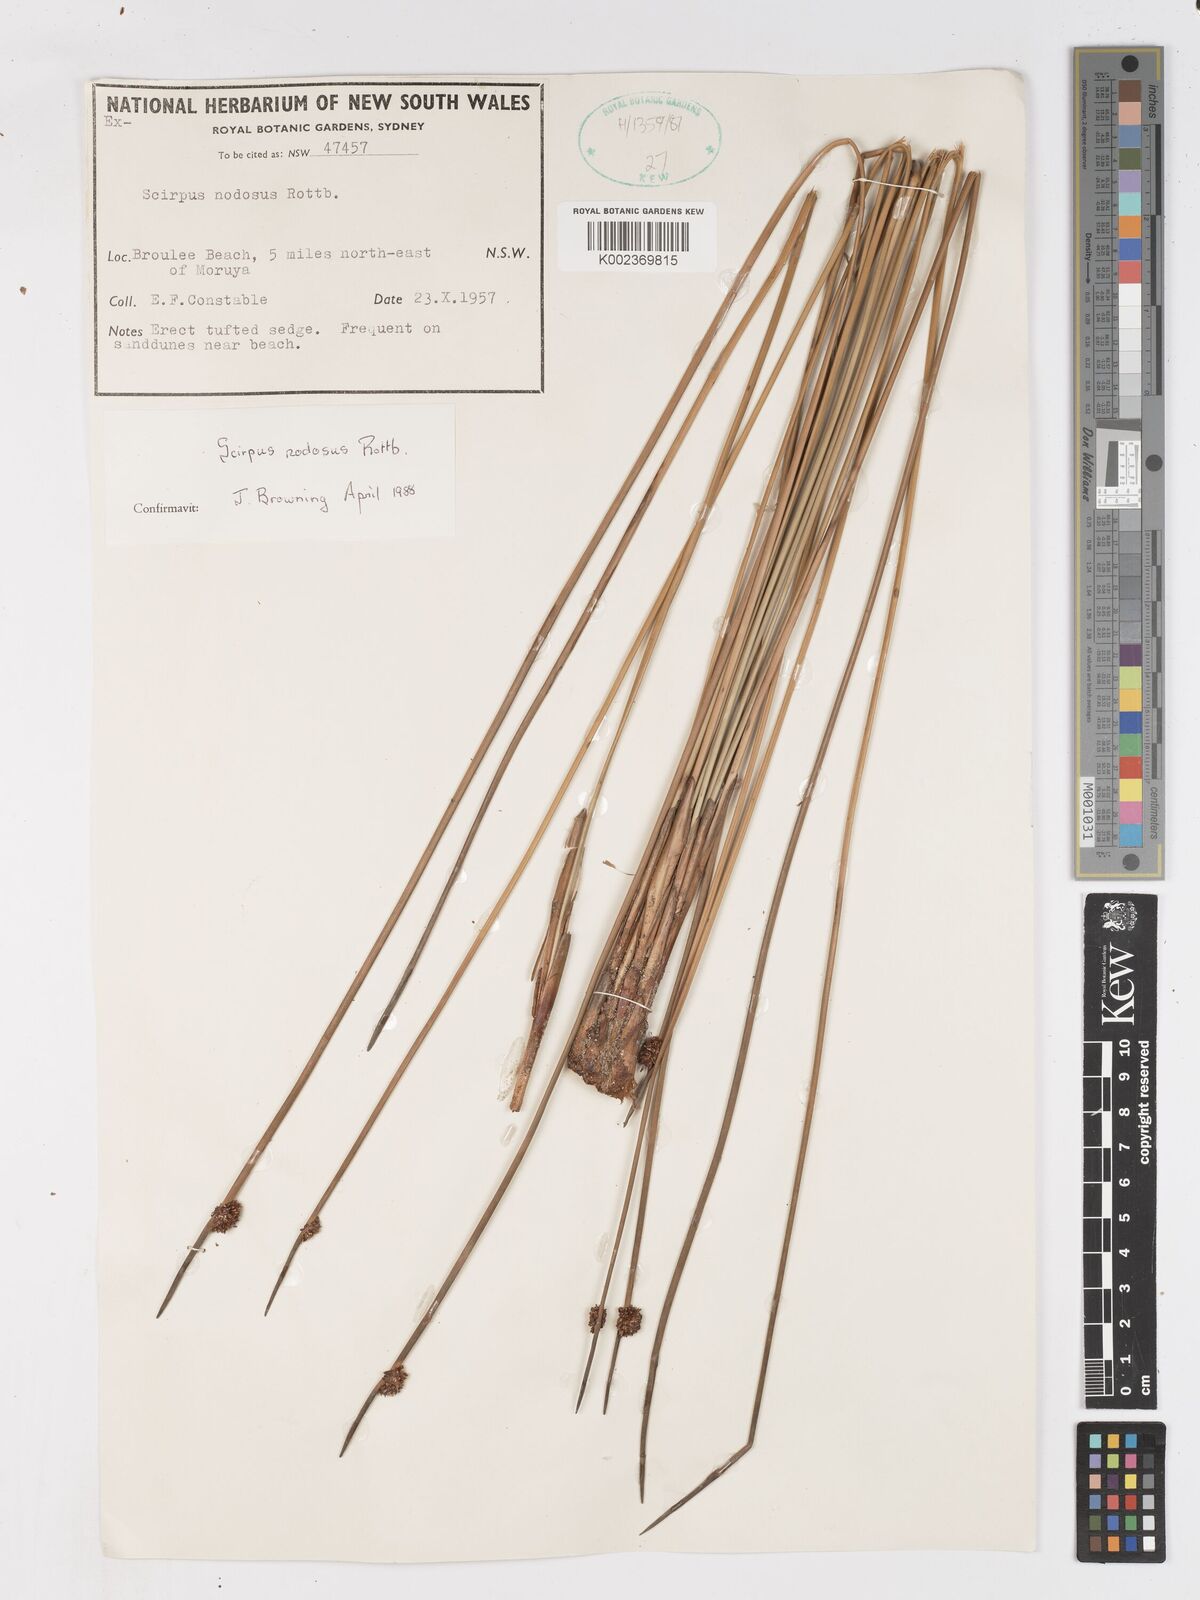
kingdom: Plantae
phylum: Tracheophyta
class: Liliopsida
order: Poales
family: Cyperaceae
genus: Ficinia
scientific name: Ficinia nodosa
